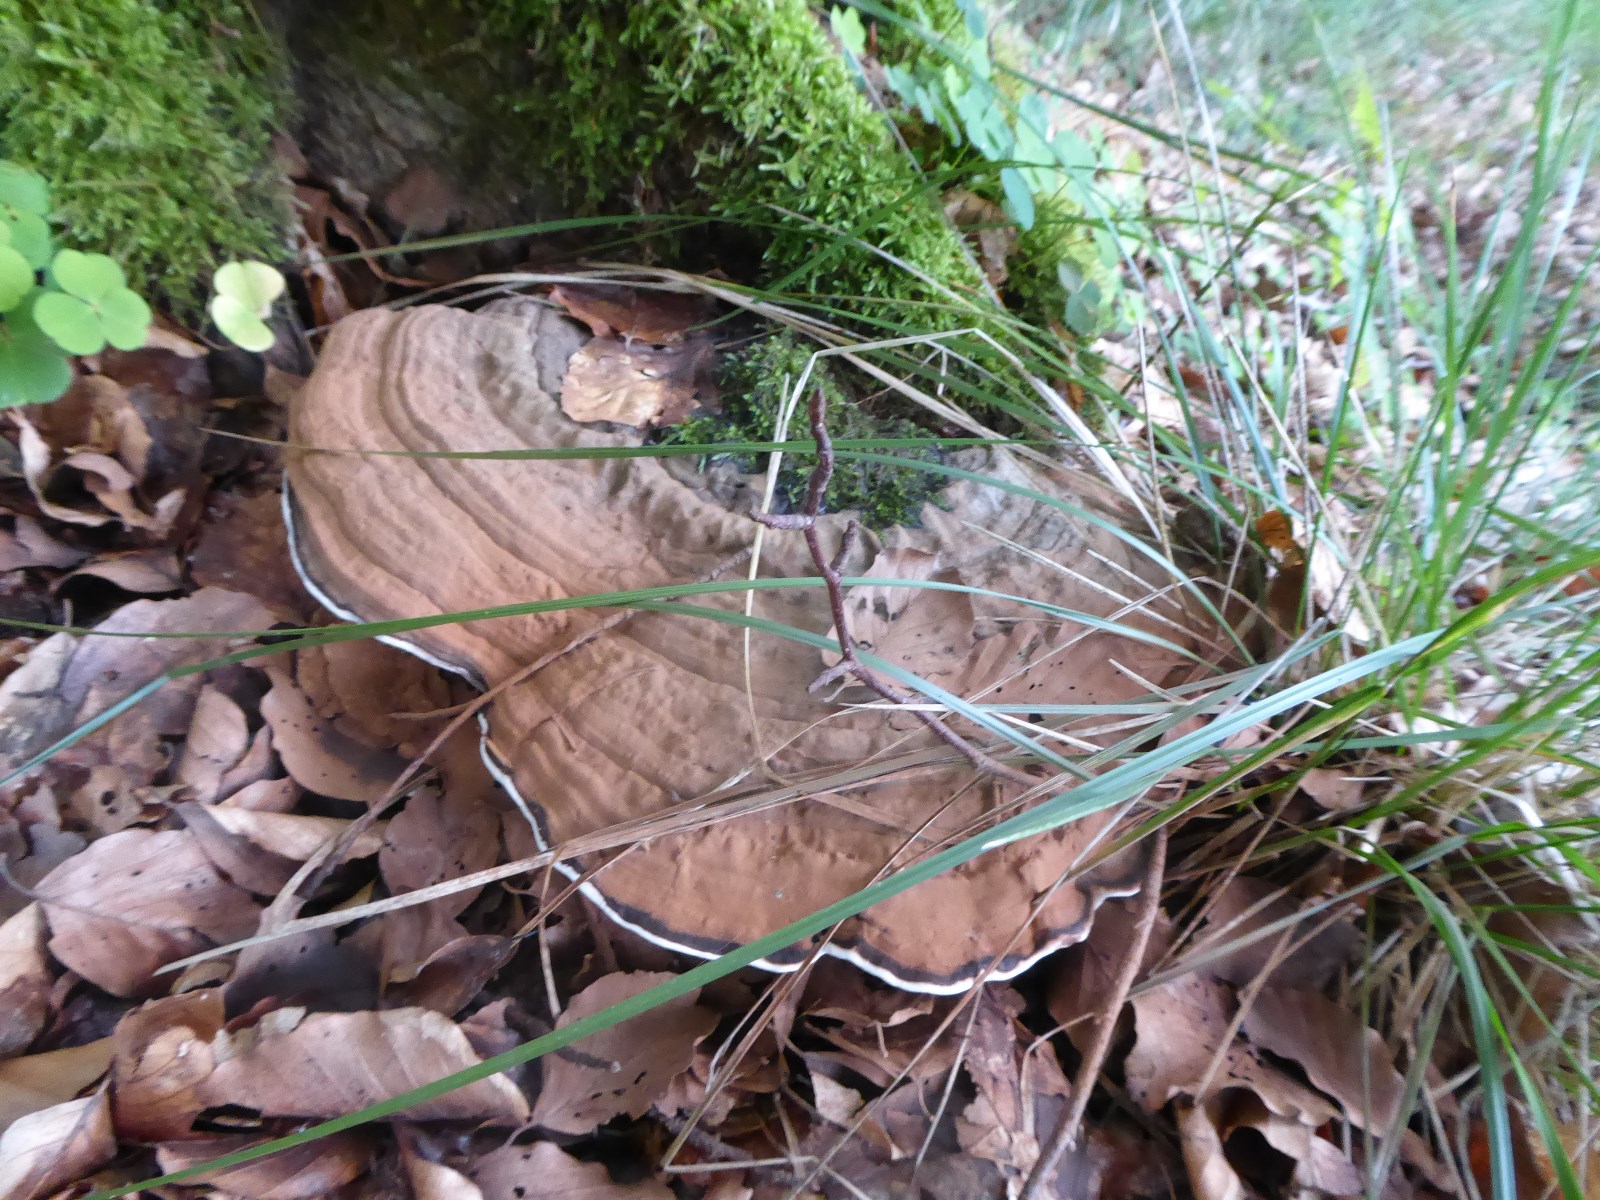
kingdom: Fungi
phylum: Basidiomycota
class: Agaricomycetes
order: Polyporales
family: Polyporaceae
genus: Ganoderma
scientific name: Ganoderma applanatum
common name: flad lakporesvamp
